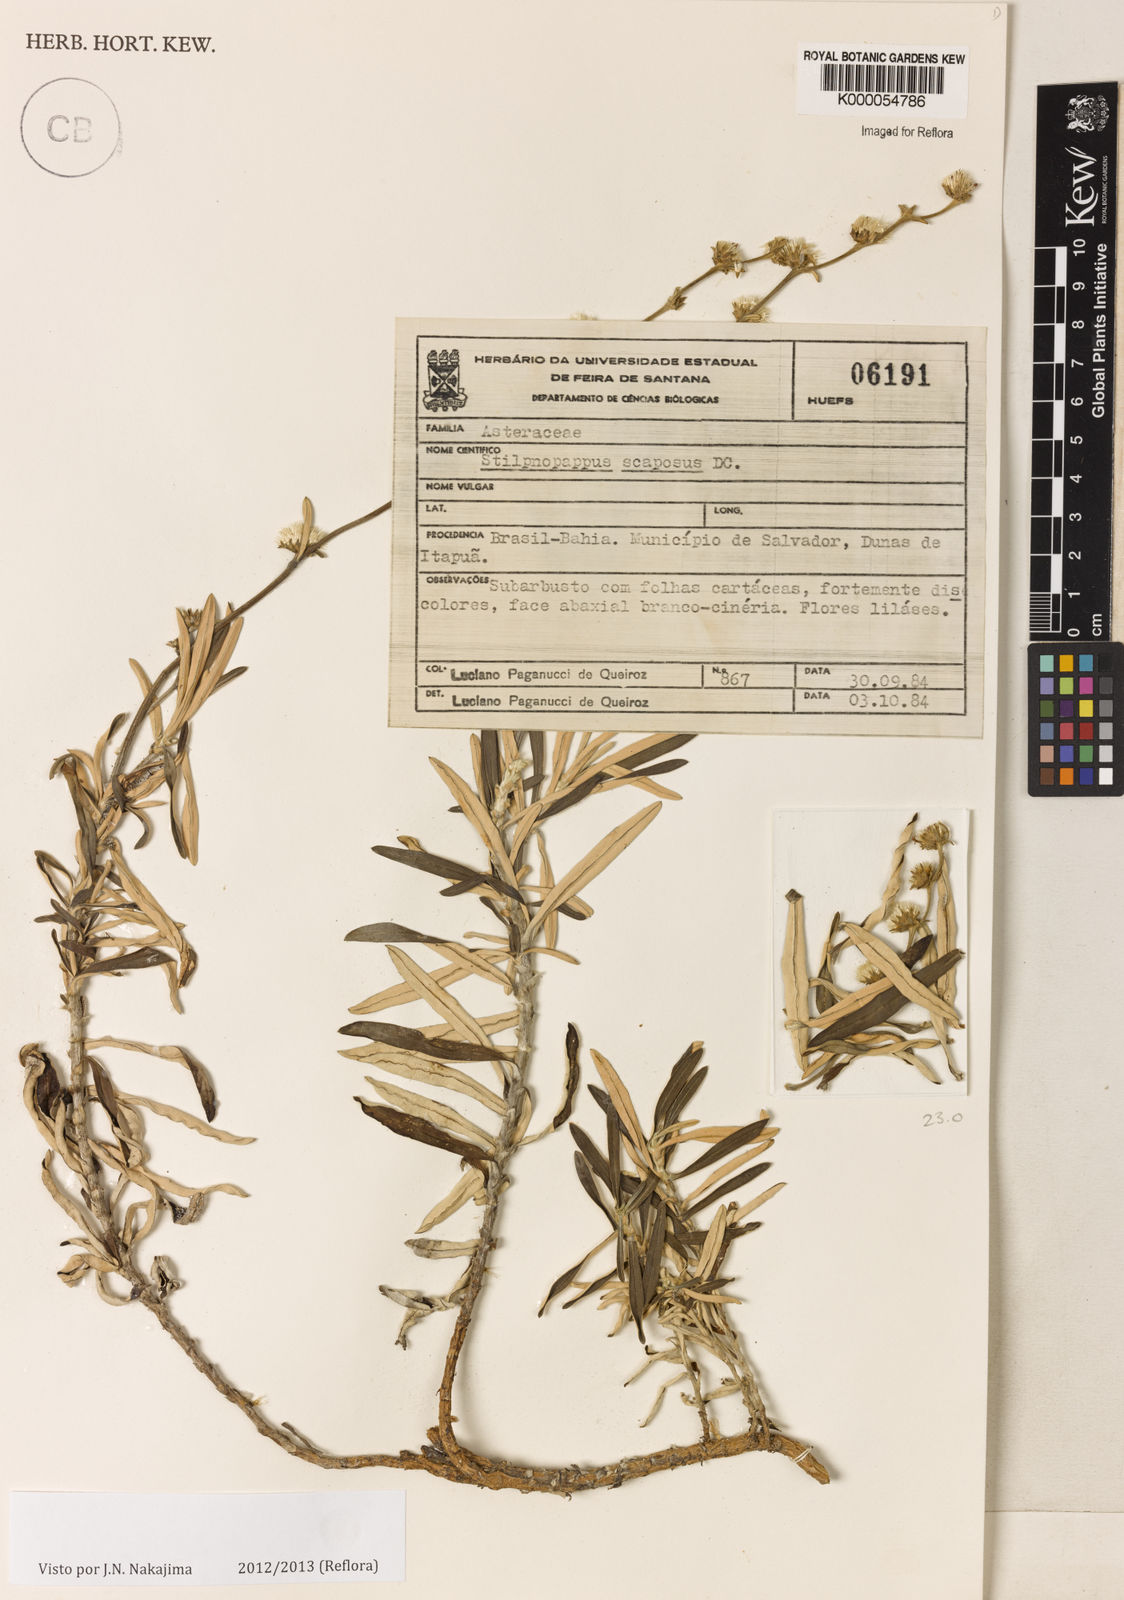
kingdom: Plantae
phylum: Tracheophyta
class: Magnoliopsida
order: Asterales
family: Asteraceae
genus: Stilpnopappus
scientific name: Stilpnopappus scaposus
